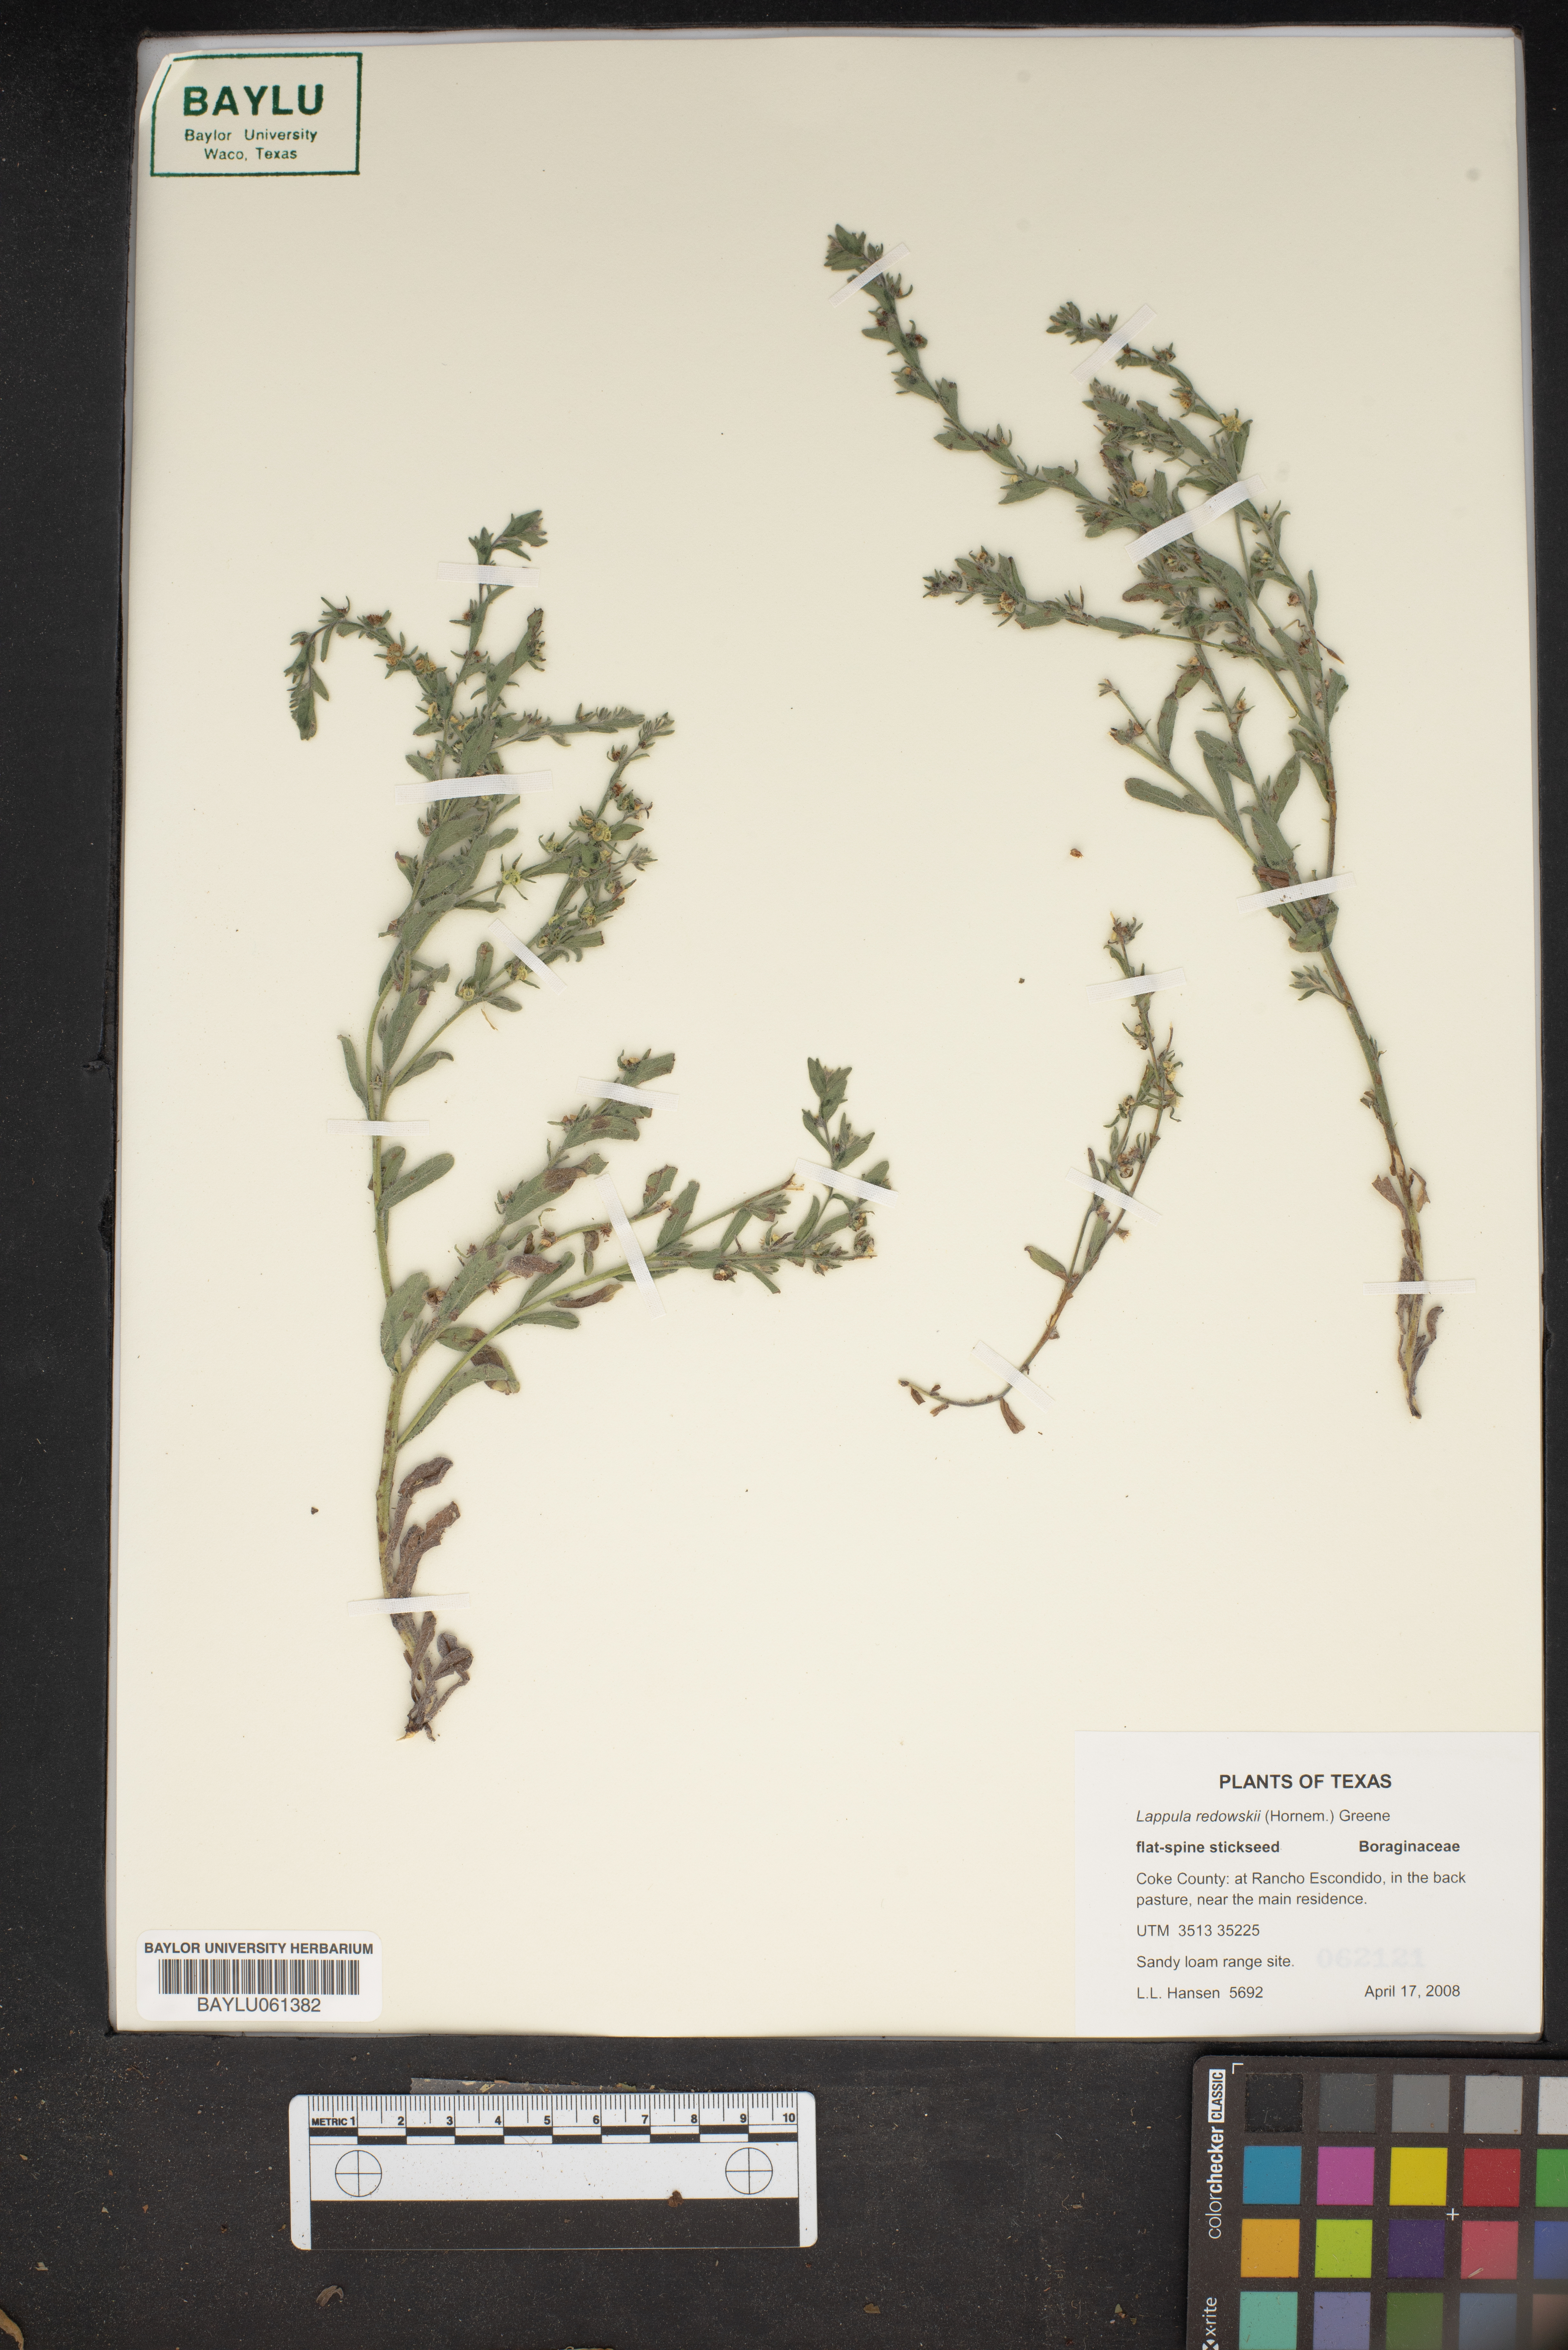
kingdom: Plantae
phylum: Tracheophyta
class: Magnoliopsida
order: Boraginales
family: Boraginaceae
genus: Lappula
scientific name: Lappula redowskii
